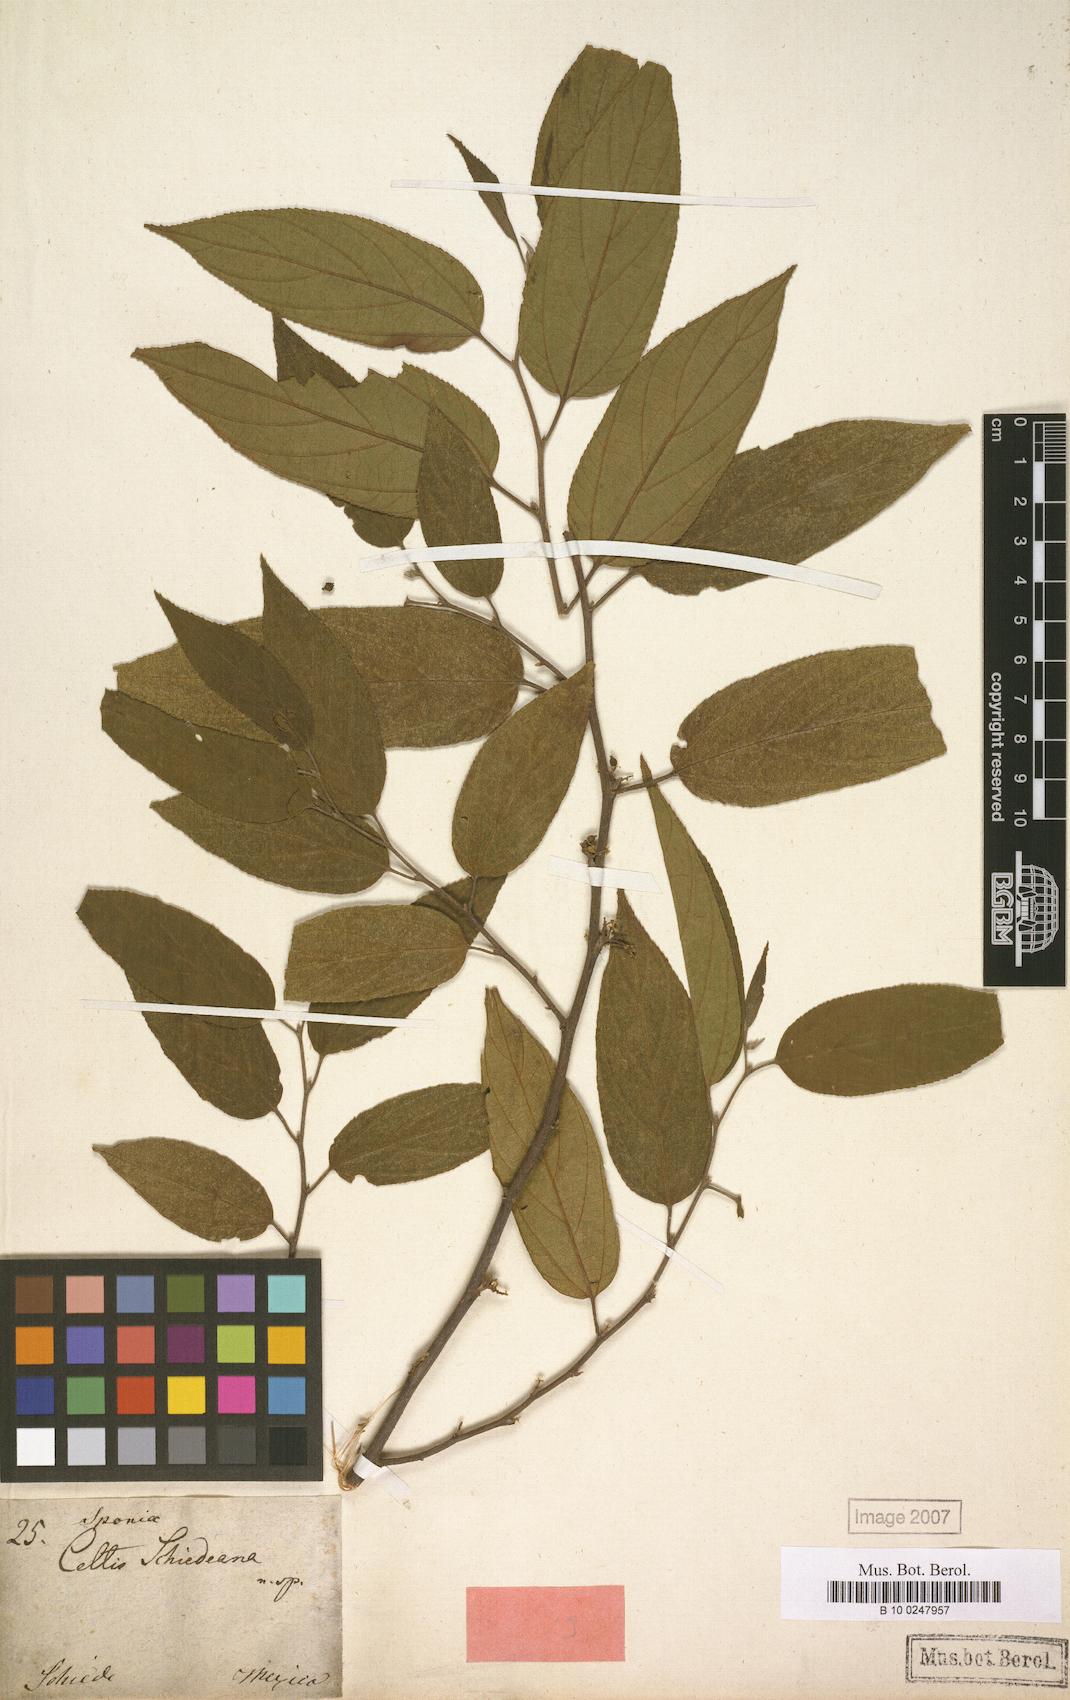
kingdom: Plantae
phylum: Tracheophyta
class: Magnoliopsida
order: Rosales
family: Cannabaceae
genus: Trema
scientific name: Trema micranthum
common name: Jamaican nettletree
